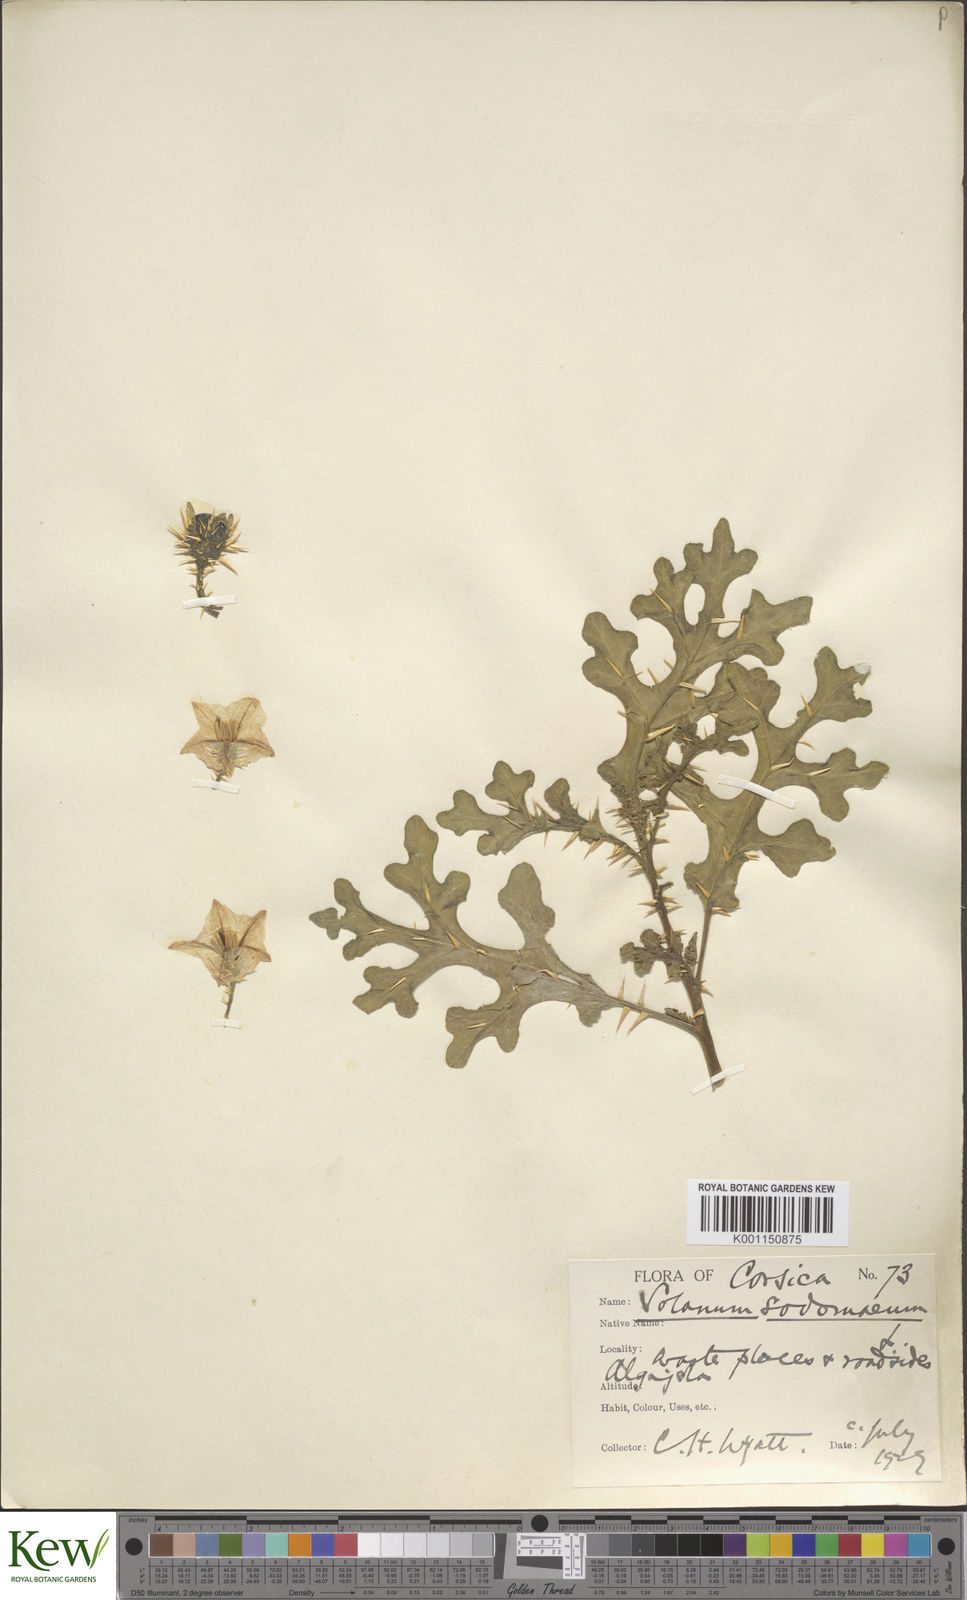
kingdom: Plantae
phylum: Tracheophyta
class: Magnoliopsida
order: Solanales
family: Solanaceae
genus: Solanum
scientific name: Solanum anguivi
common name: Forest bitterberry
